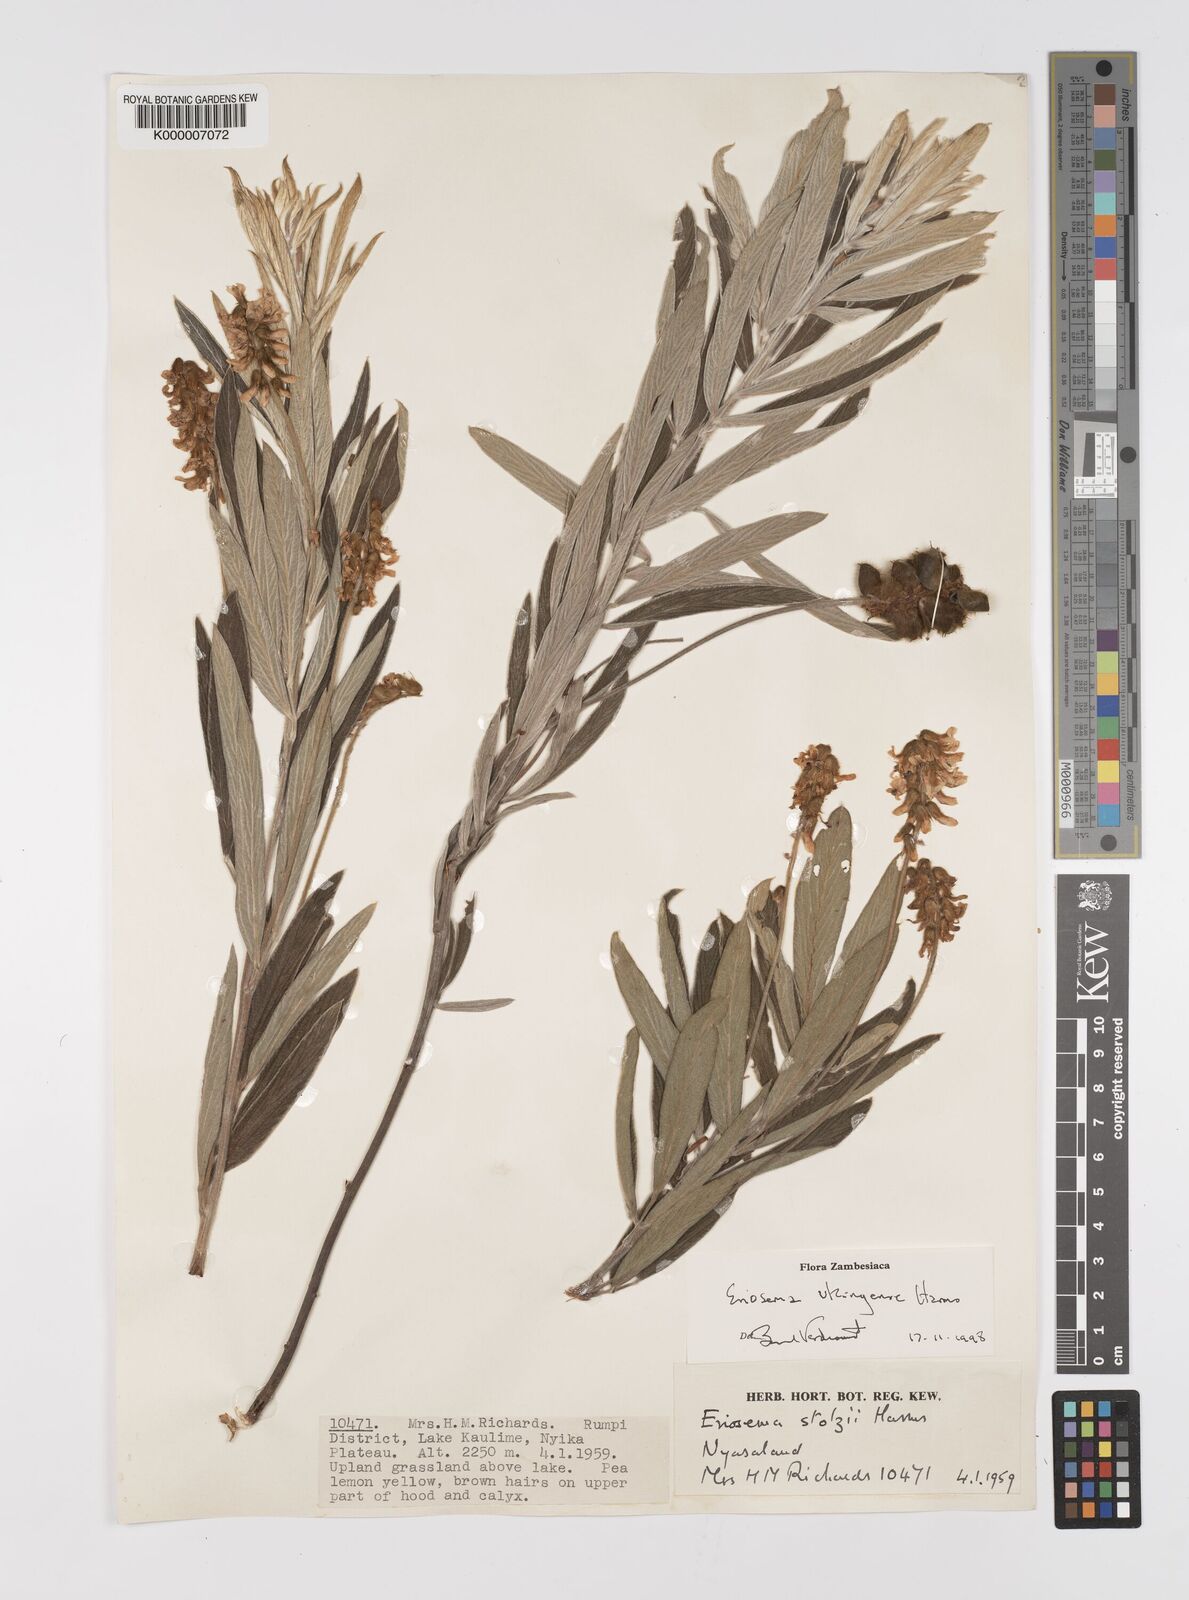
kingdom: Plantae
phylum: Tracheophyta
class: Magnoliopsida
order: Fabales
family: Fabaceae
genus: Eriosema
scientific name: Eriosema ukingense
